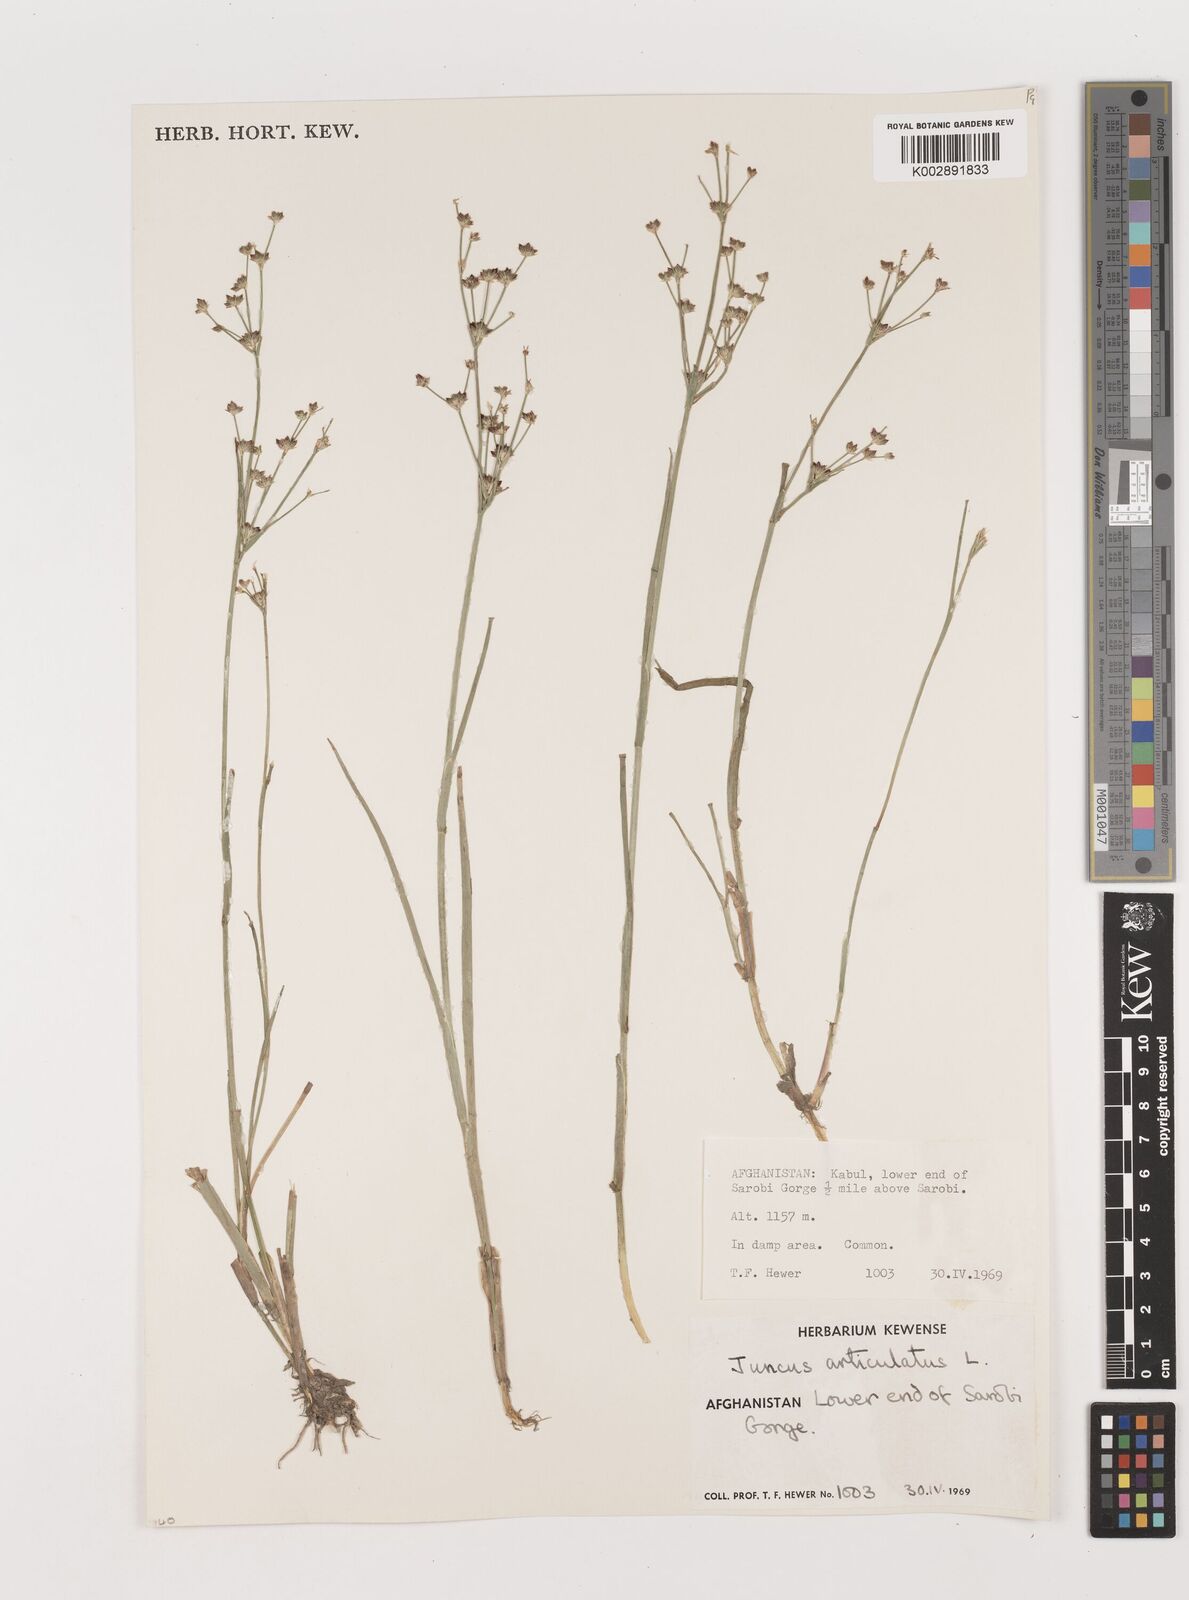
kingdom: Plantae
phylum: Tracheophyta
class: Liliopsida
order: Poales
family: Juncaceae
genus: Juncus
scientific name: Juncus articulatus
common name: Jointed rush
